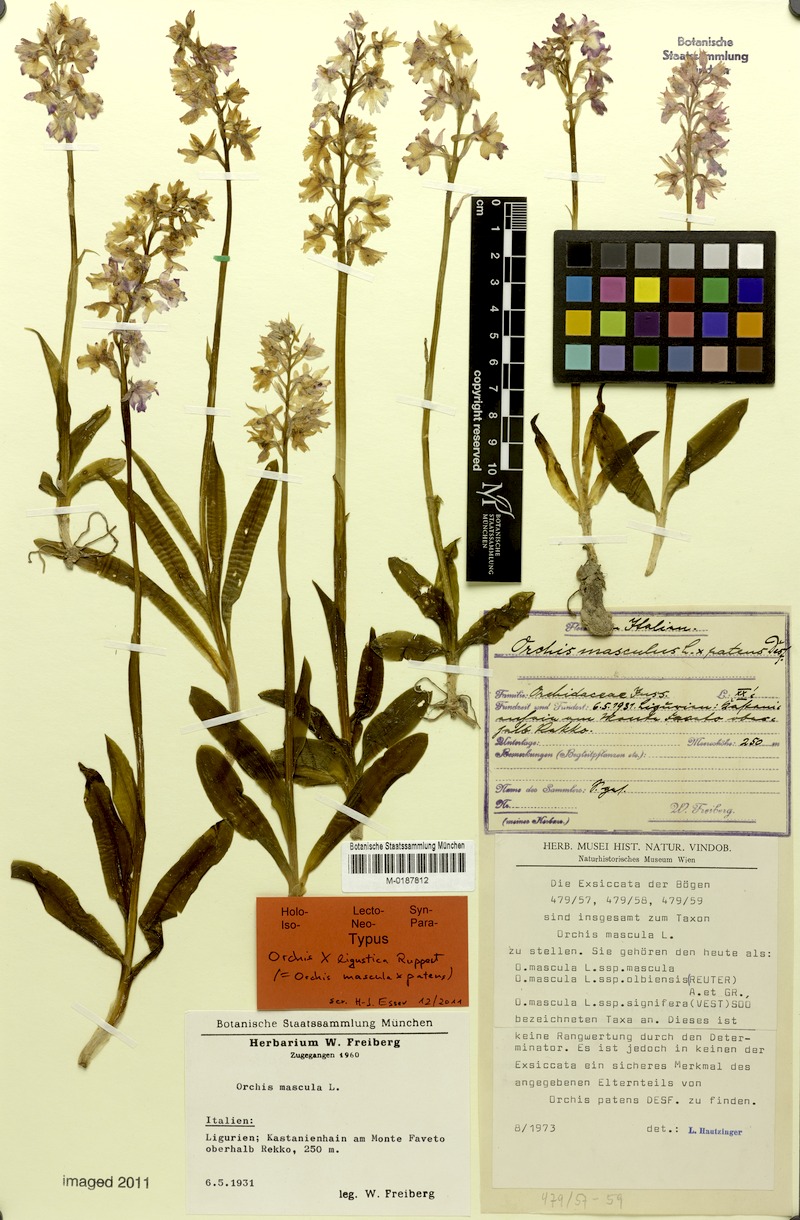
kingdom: Plantae
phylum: Tracheophyta
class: Liliopsida
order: Asparagales
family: Orchidaceae
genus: Orchis
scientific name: Orchis mascula
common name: Early-purple orchid
